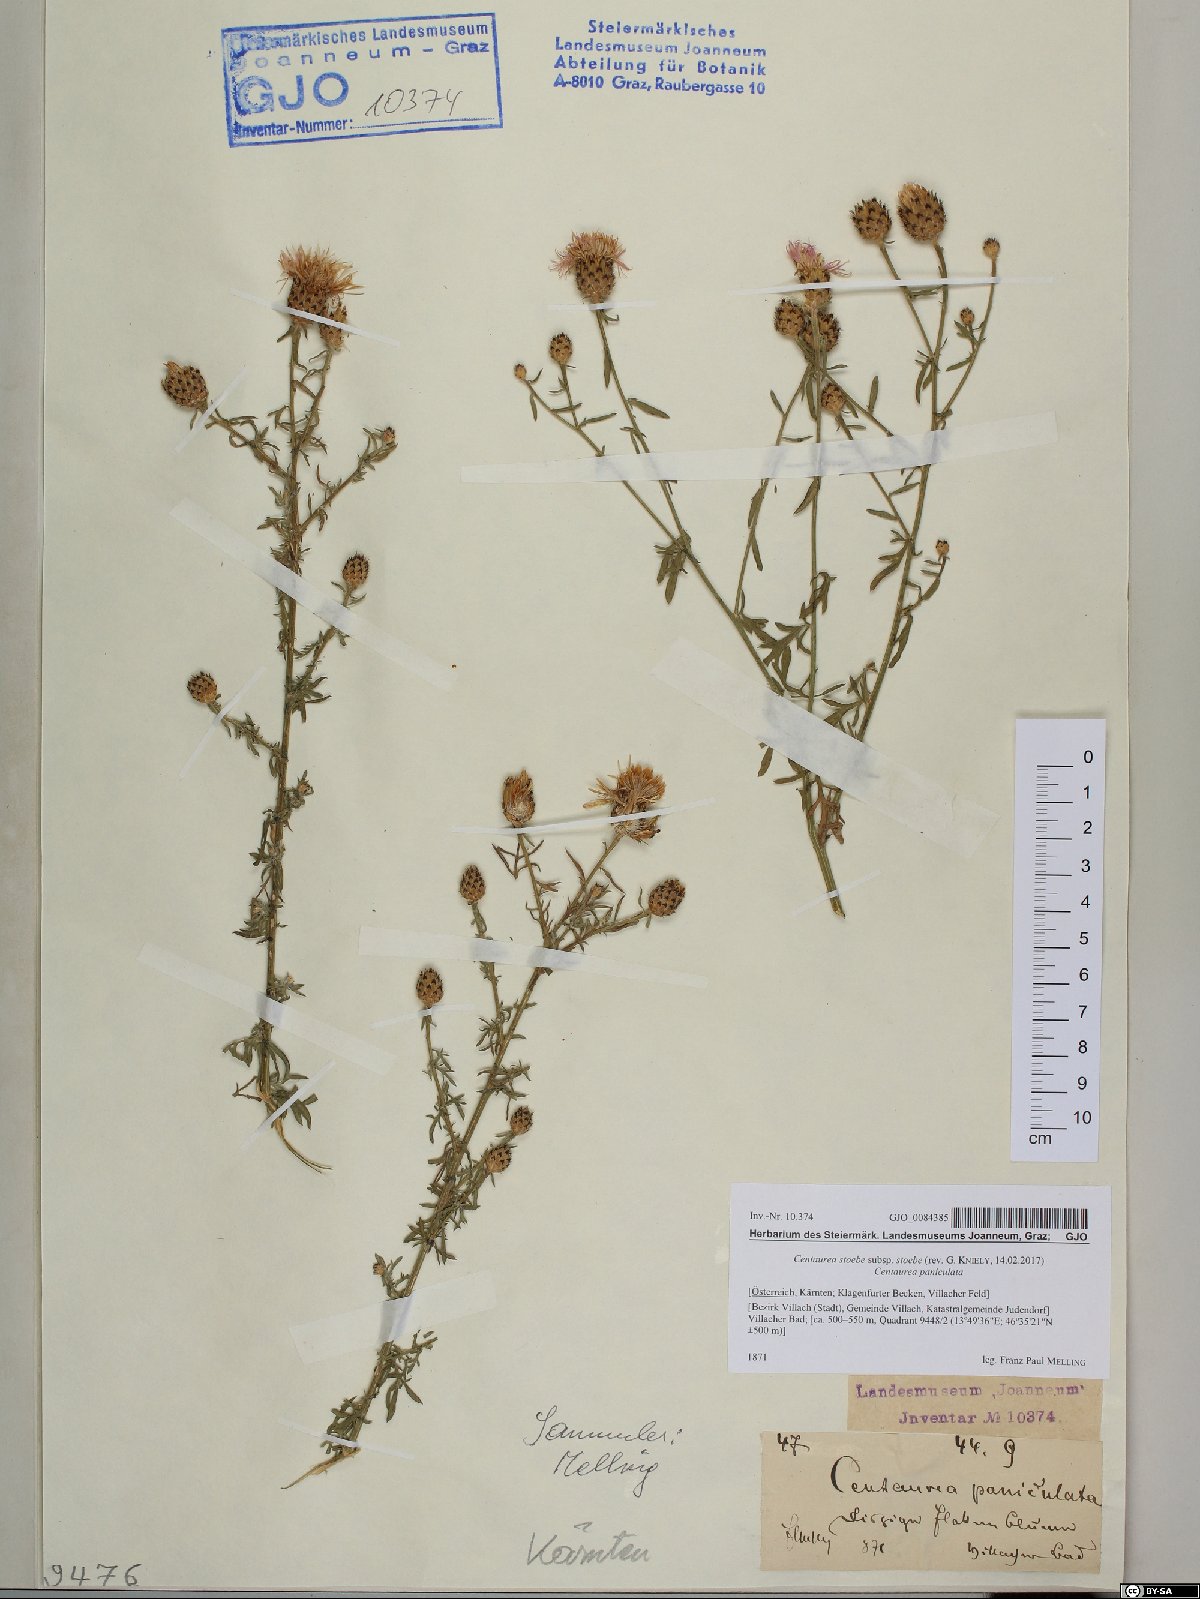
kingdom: Plantae
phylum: Tracheophyta
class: Magnoliopsida
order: Asterales
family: Asteraceae
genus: Centaurea
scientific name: Centaurea stoebe
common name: Spotted knapweed
